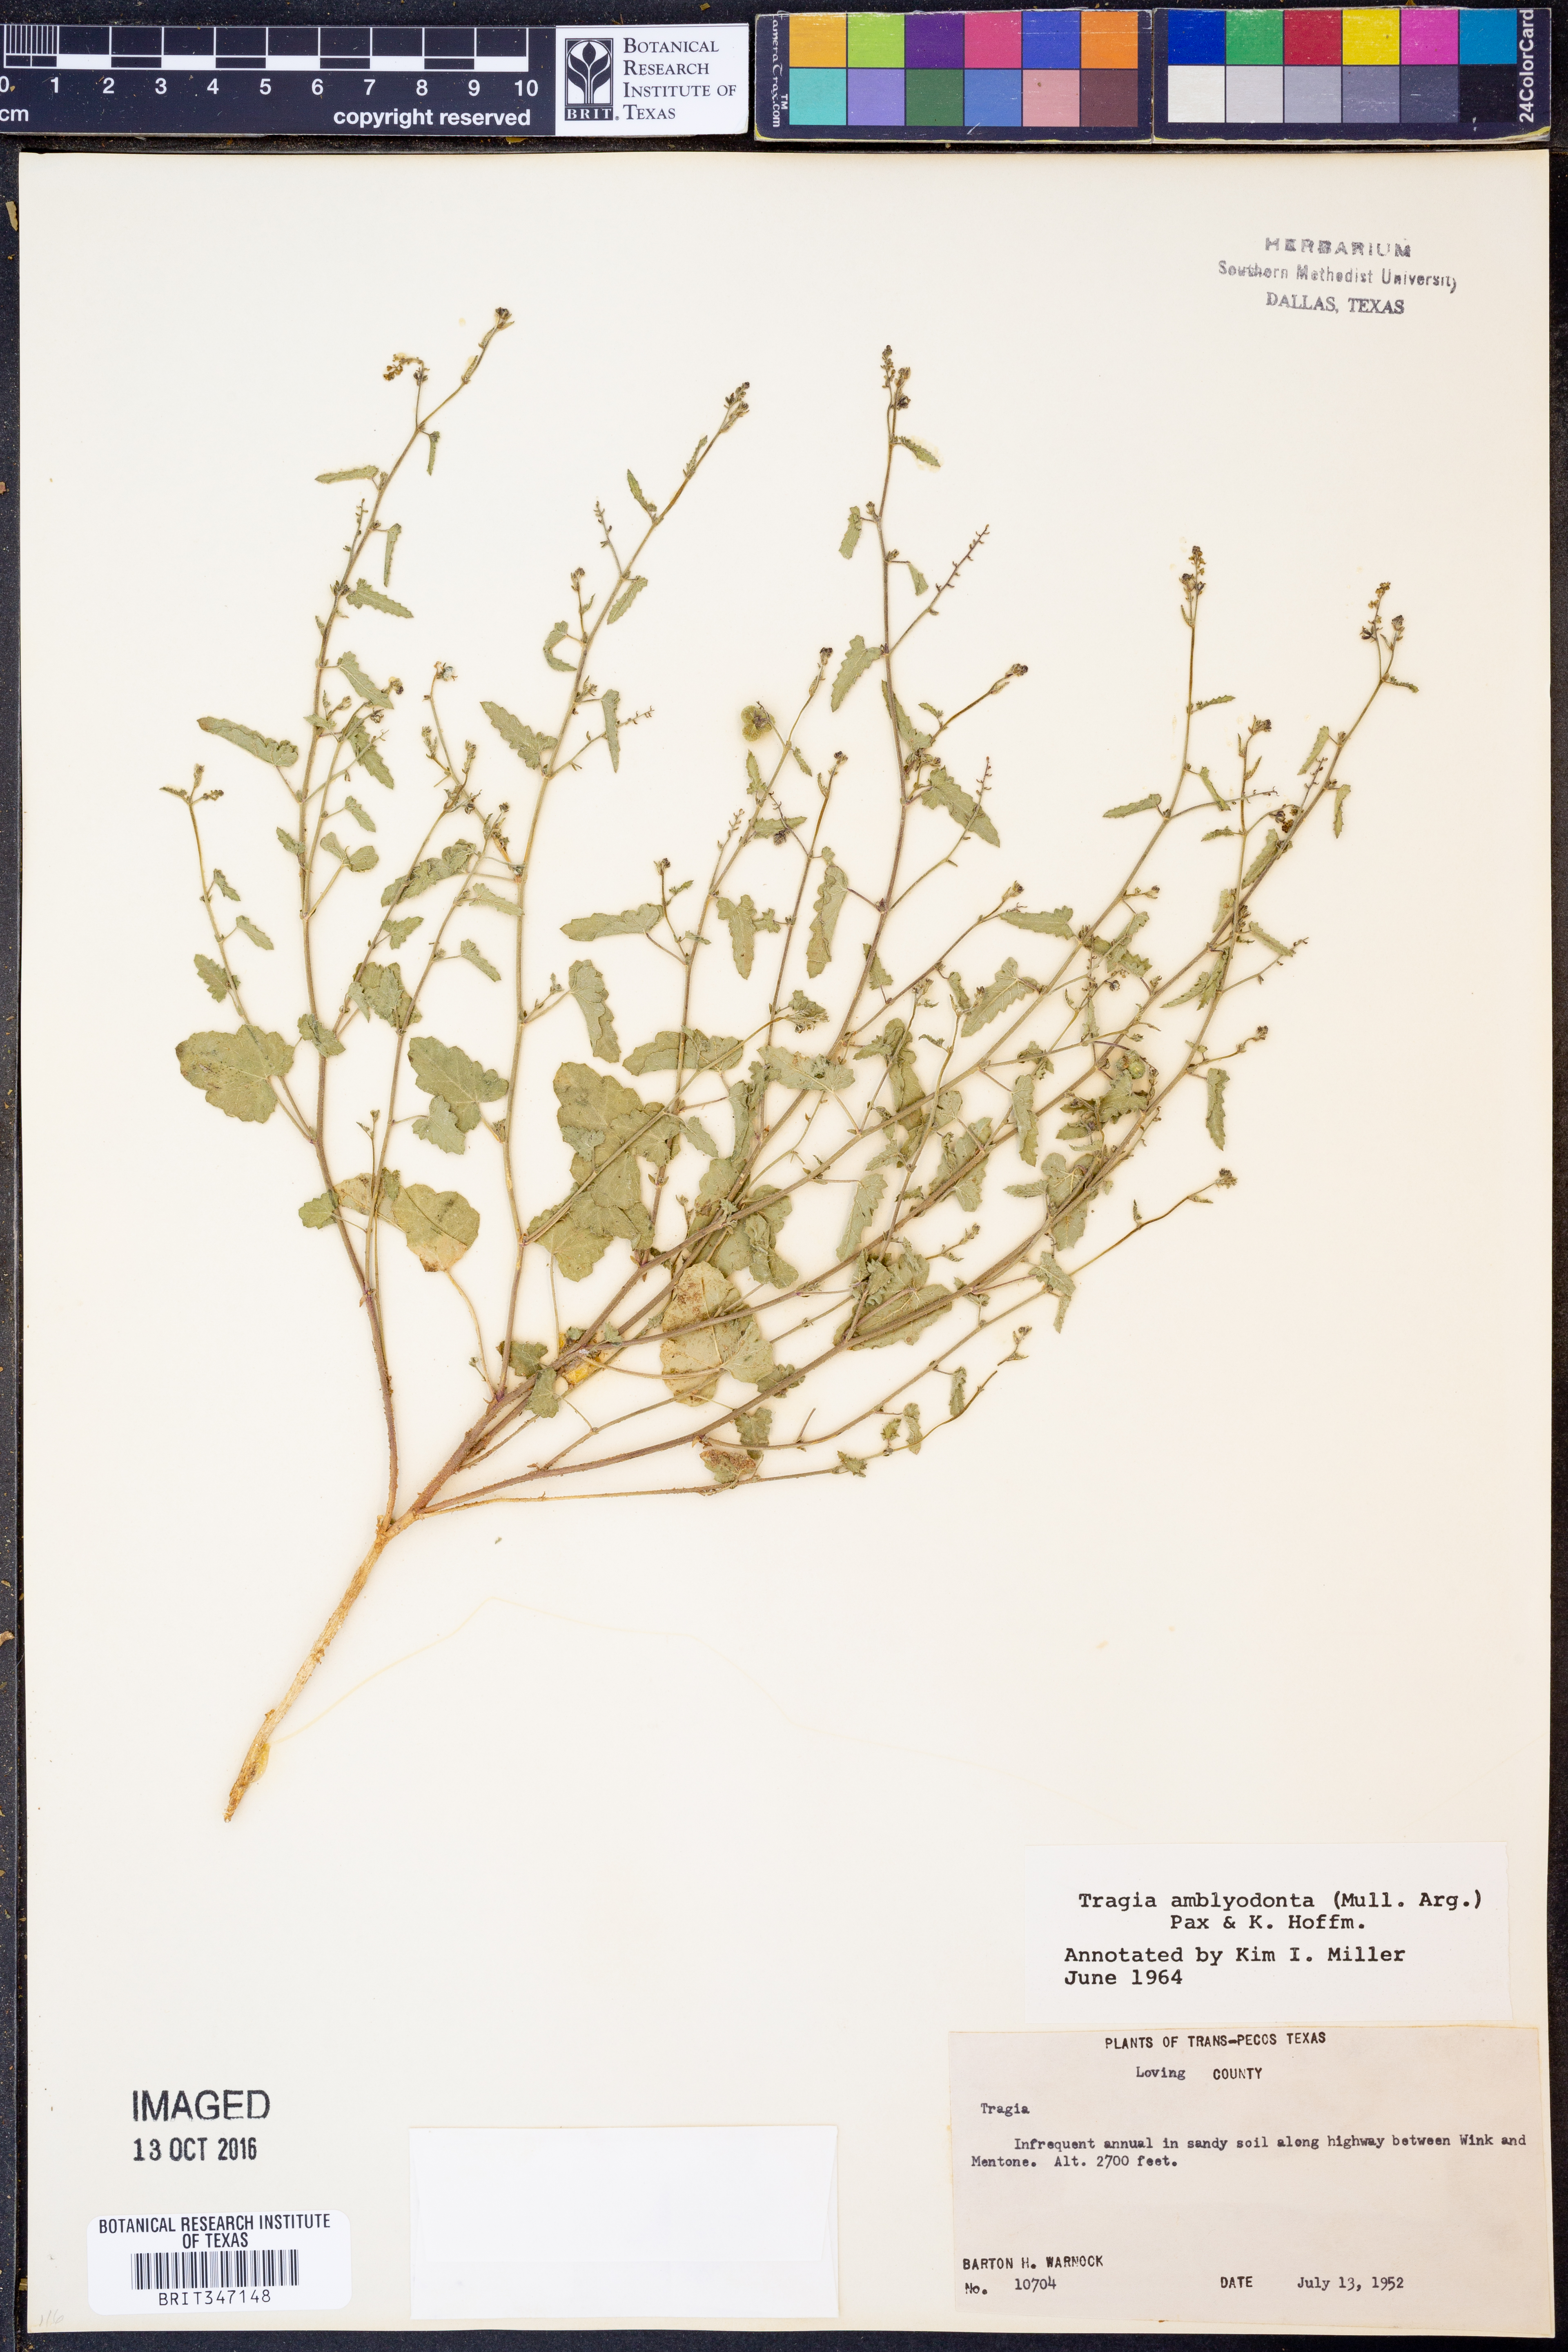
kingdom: Plantae
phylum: Tracheophyta
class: Magnoliopsida
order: Malpighiales
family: Euphorbiaceae
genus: Tragia
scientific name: Tragia amblyodonta
